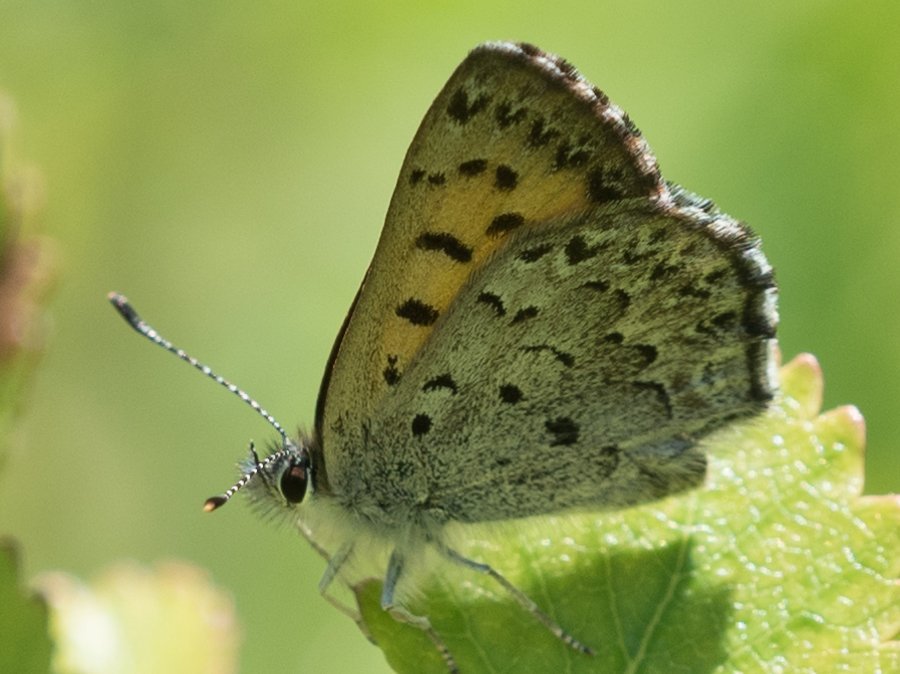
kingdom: Animalia
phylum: Arthropoda
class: Insecta
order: Lepidoptera
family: Lycaenidae
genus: Lycaena
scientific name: Lycaena mariposa
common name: Mariposa Copper
